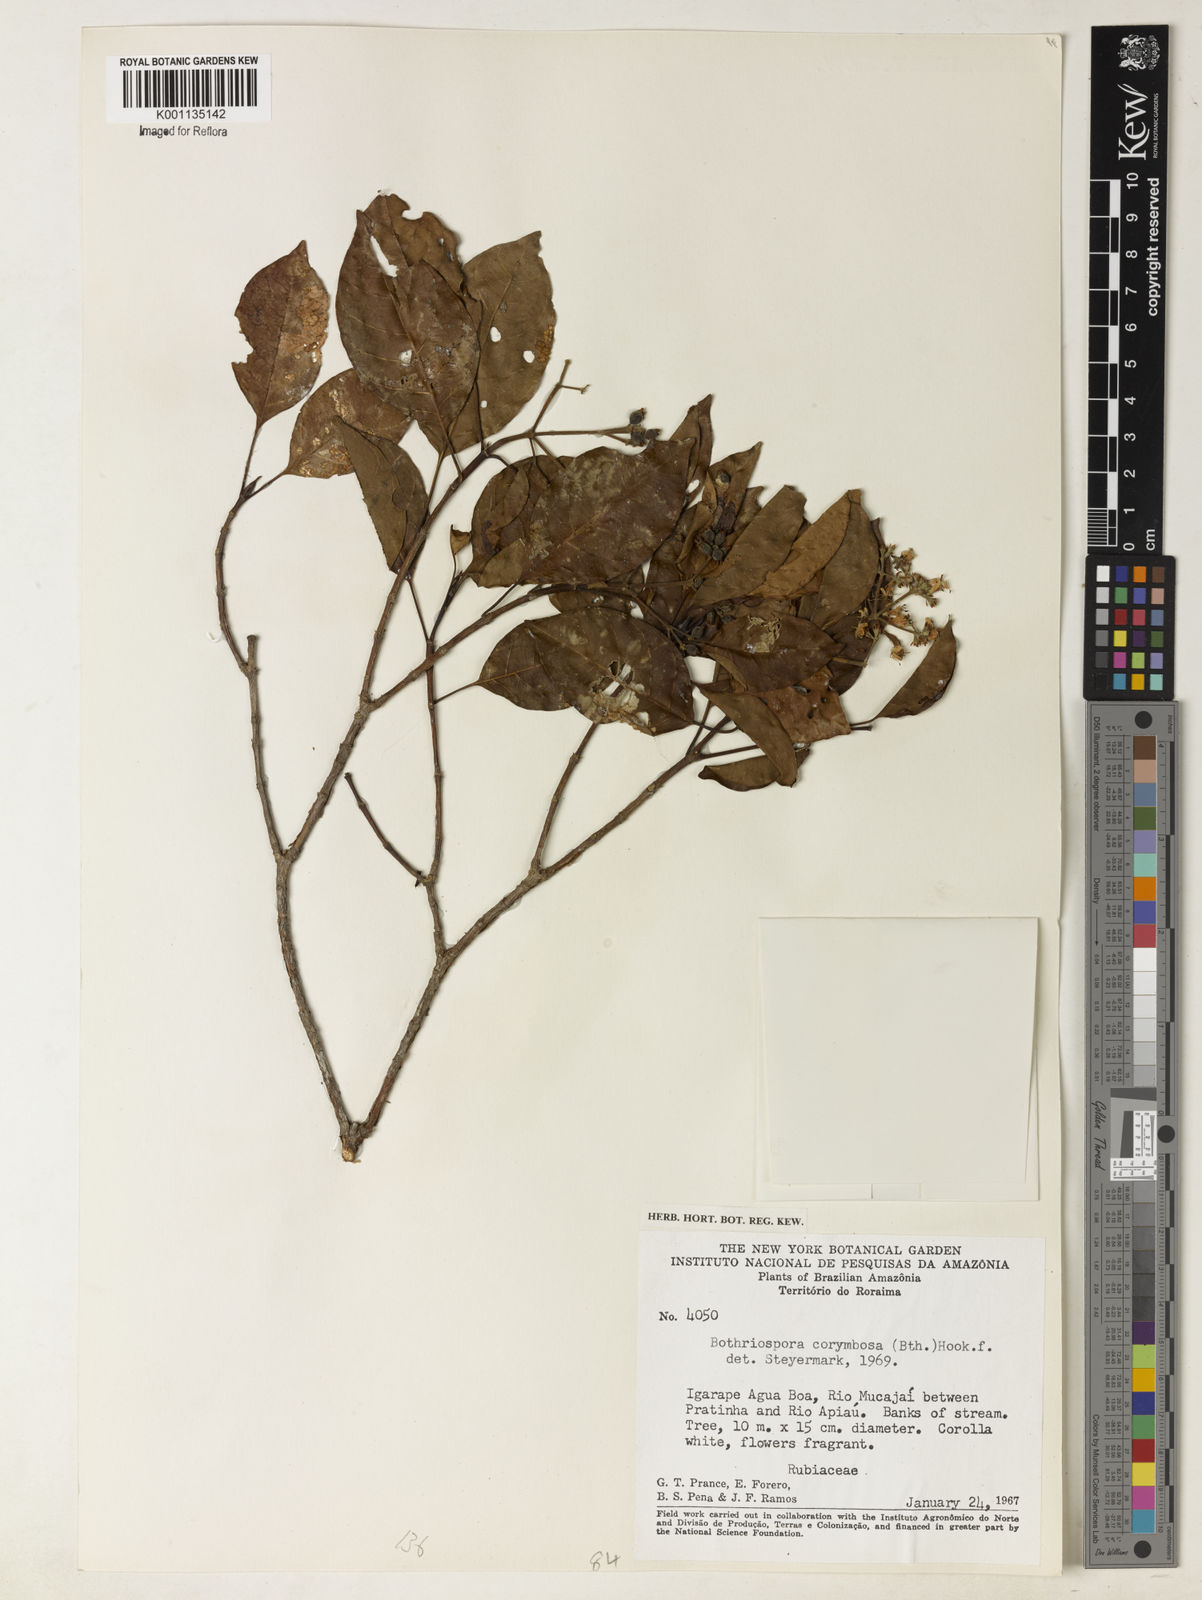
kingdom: Plantae
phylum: Tracheophyta
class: Magnoliopsida
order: Gentianales
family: Rubiaceae
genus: Bothriospora
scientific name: Bothriospora corymbosa
